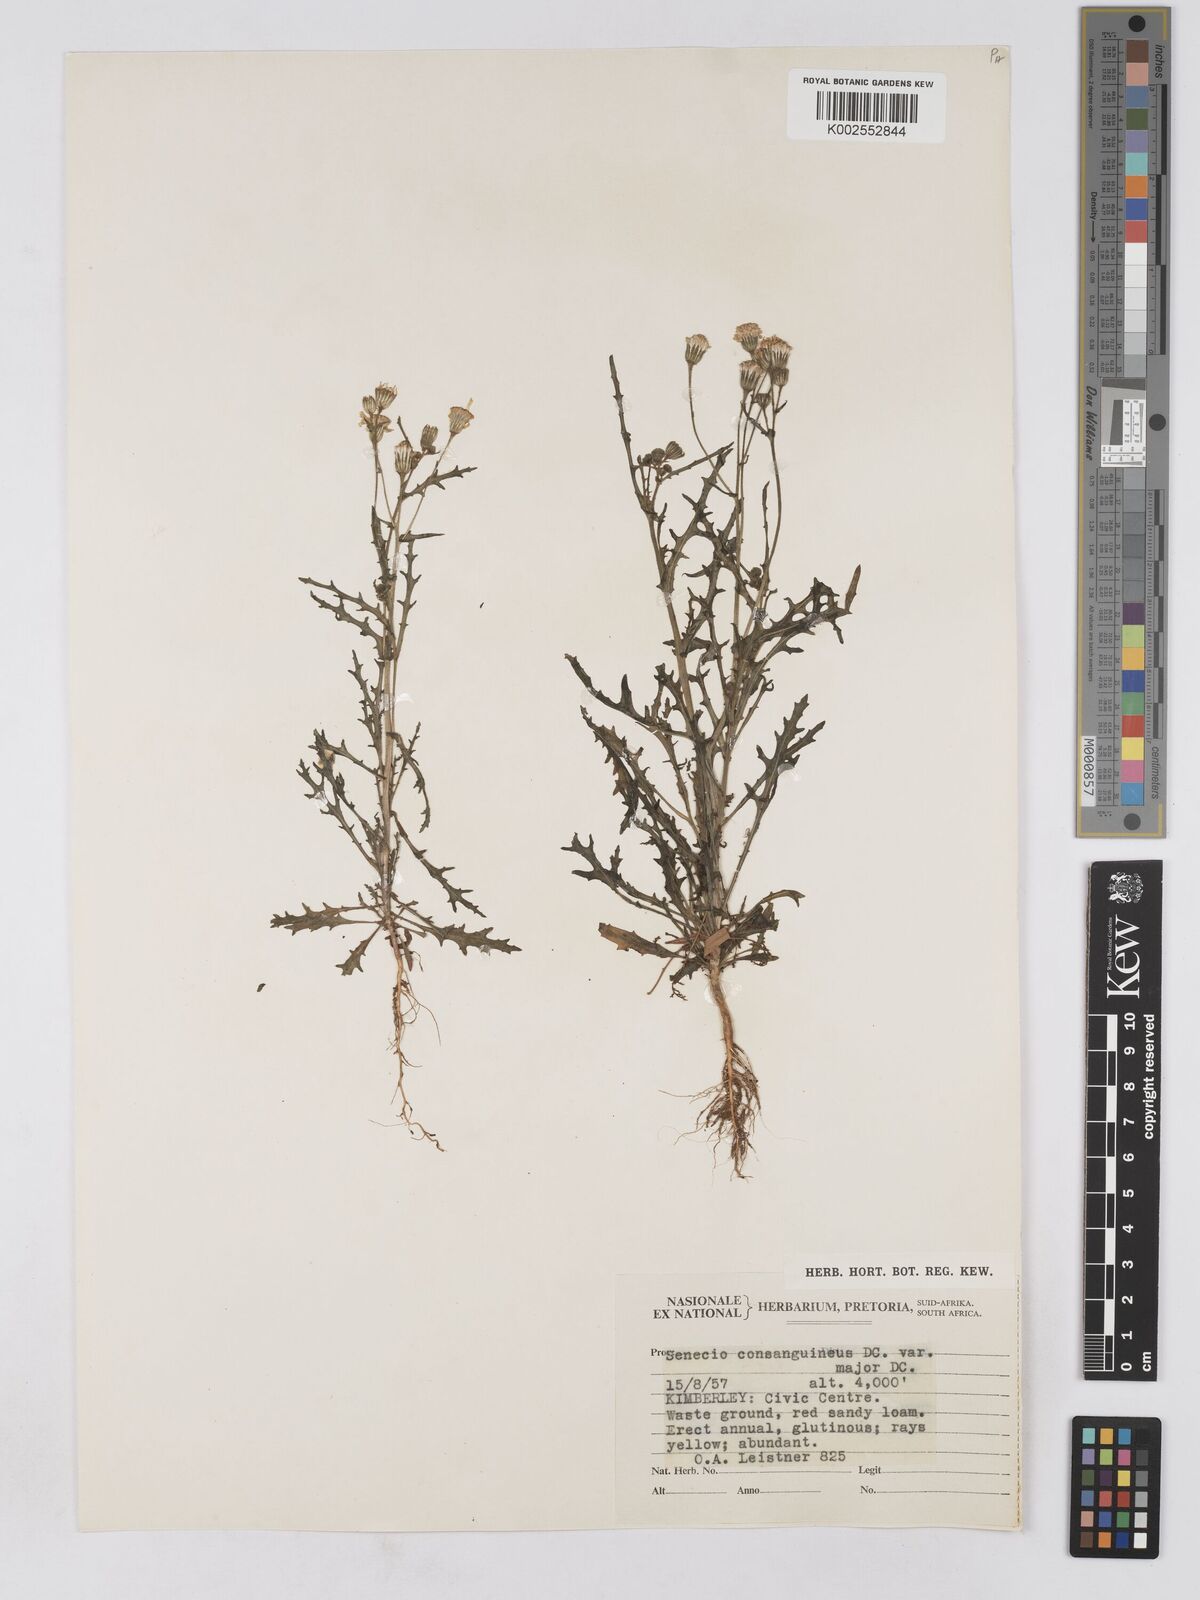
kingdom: Plantae
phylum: Tracheophyta
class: Magnoliopsida
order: Asterales
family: Asteraceae
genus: Senecio
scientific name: Senecio consanguineus
